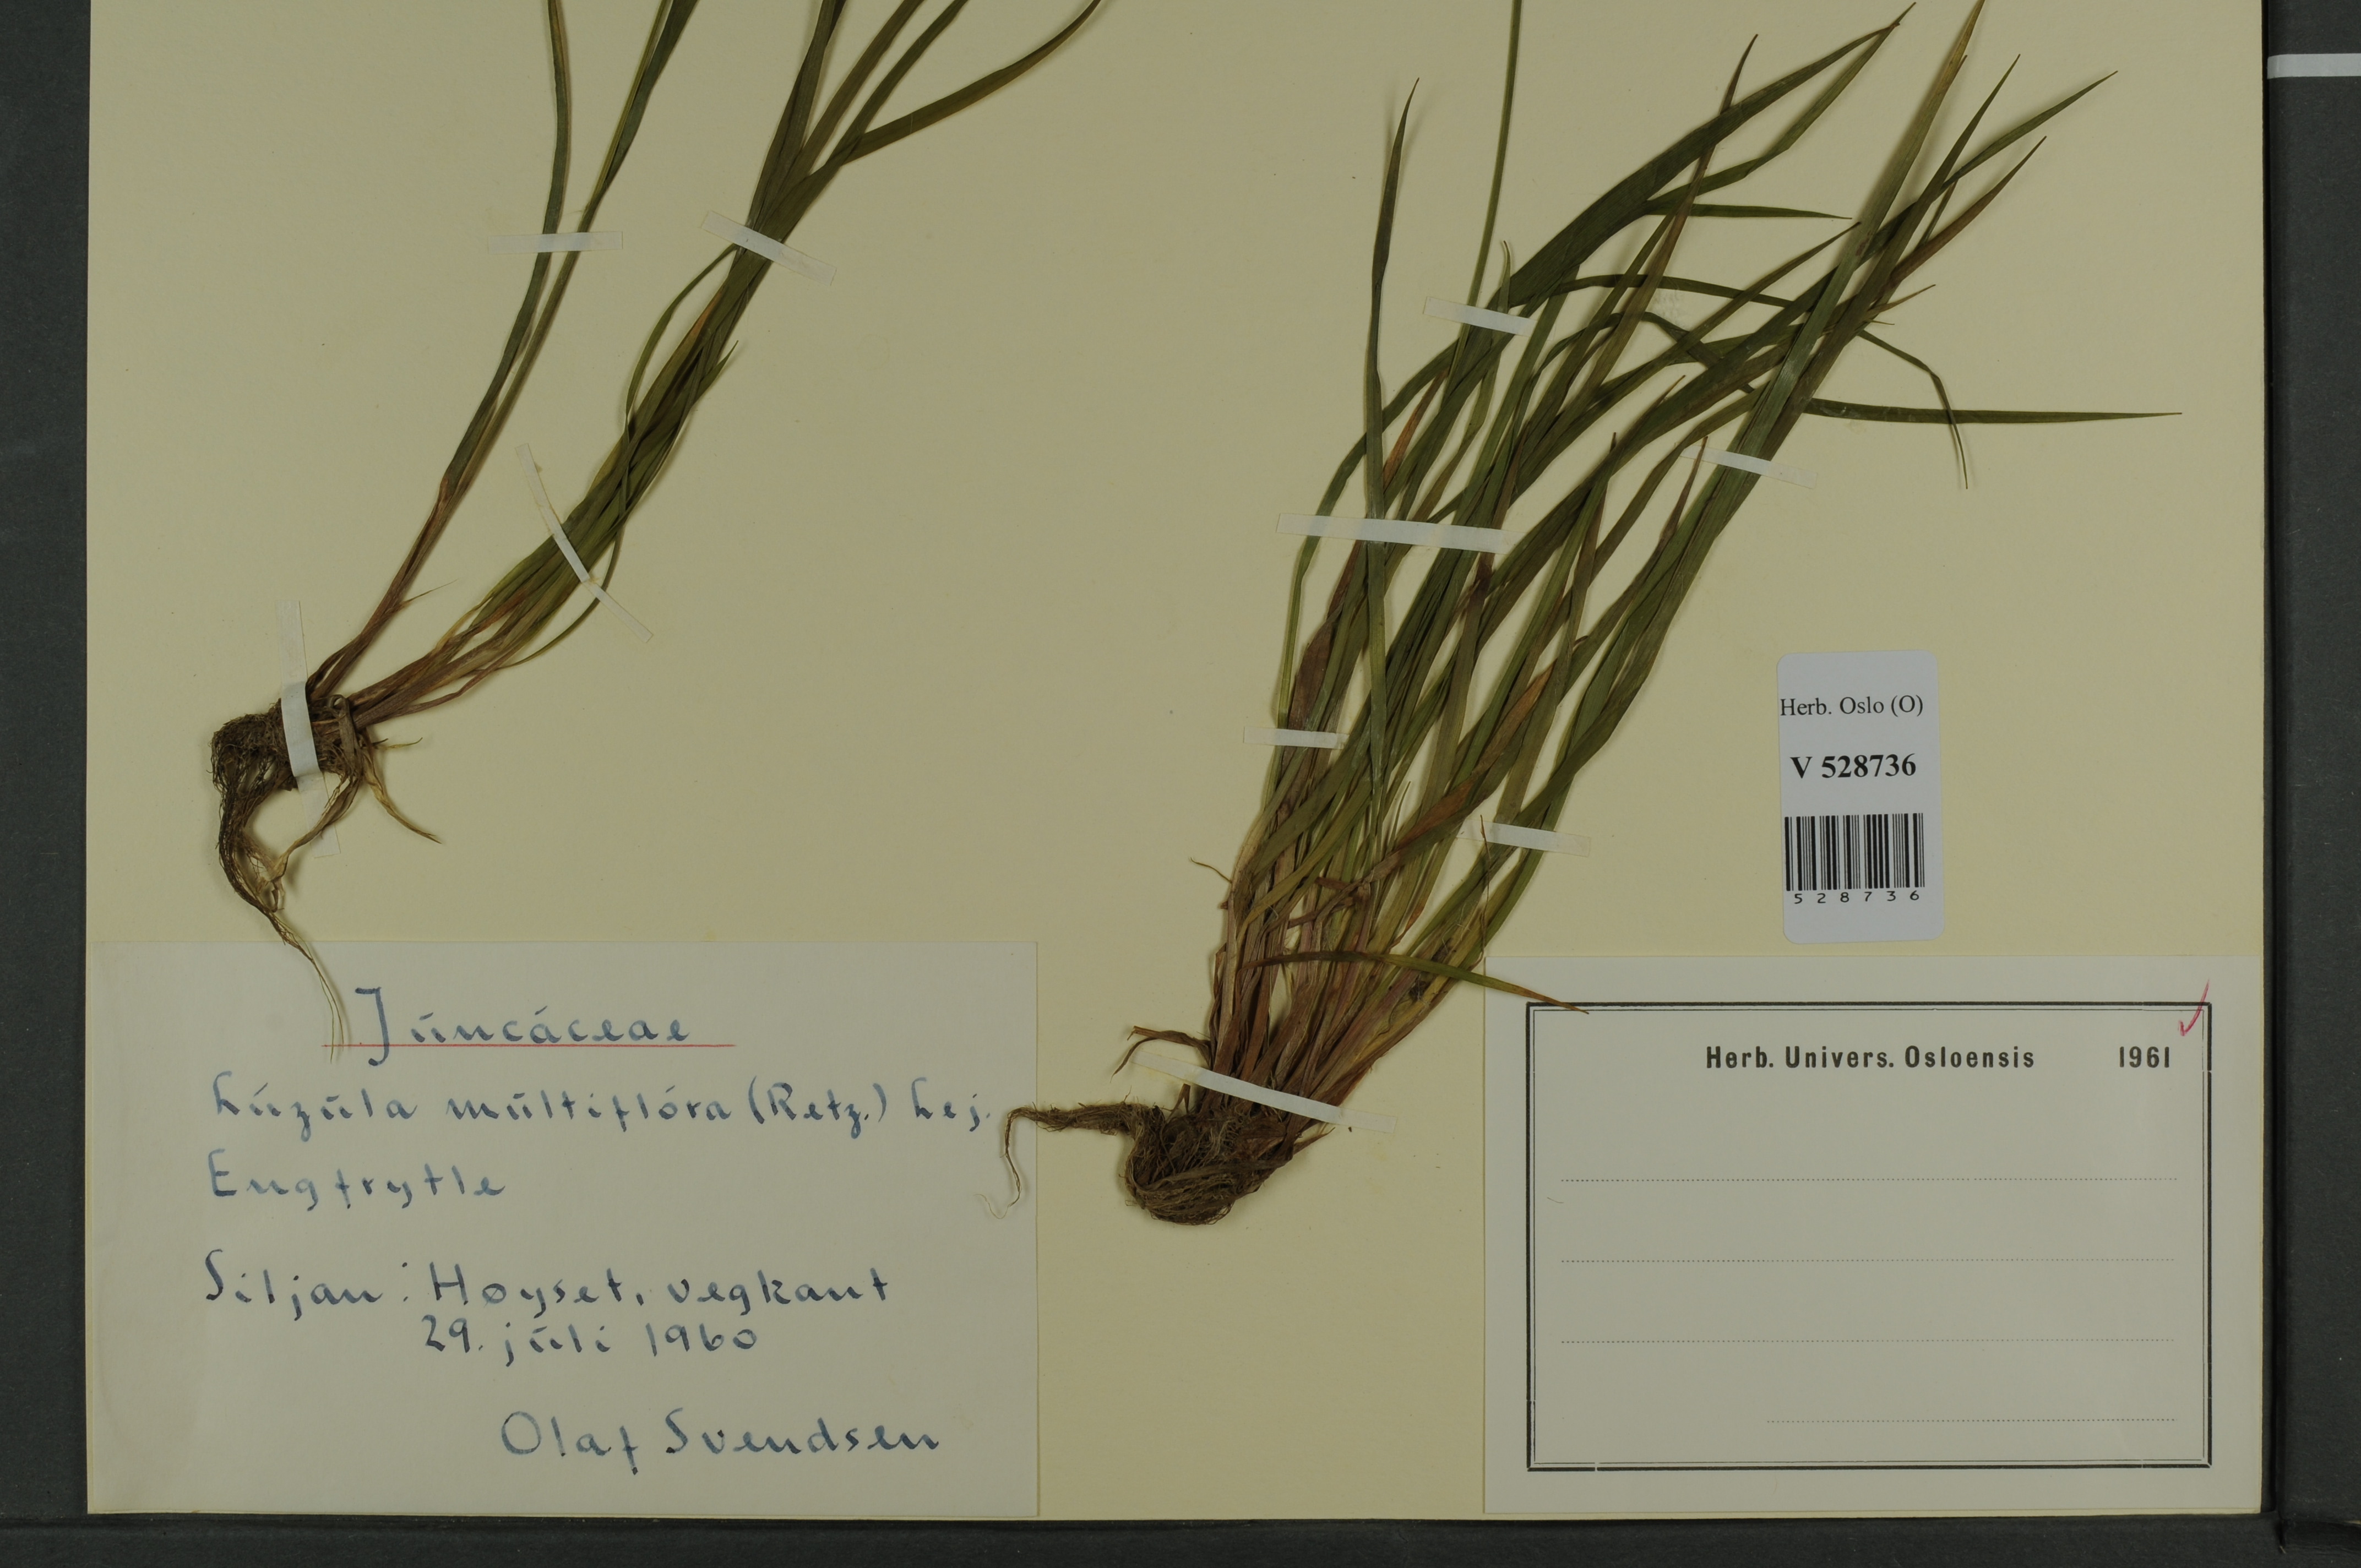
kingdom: Plantae
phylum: Tracheophyta
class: Liliopsida
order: Poales
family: Juncaceae
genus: Luzula
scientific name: Luzula multiflora
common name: Heath wood-rush
